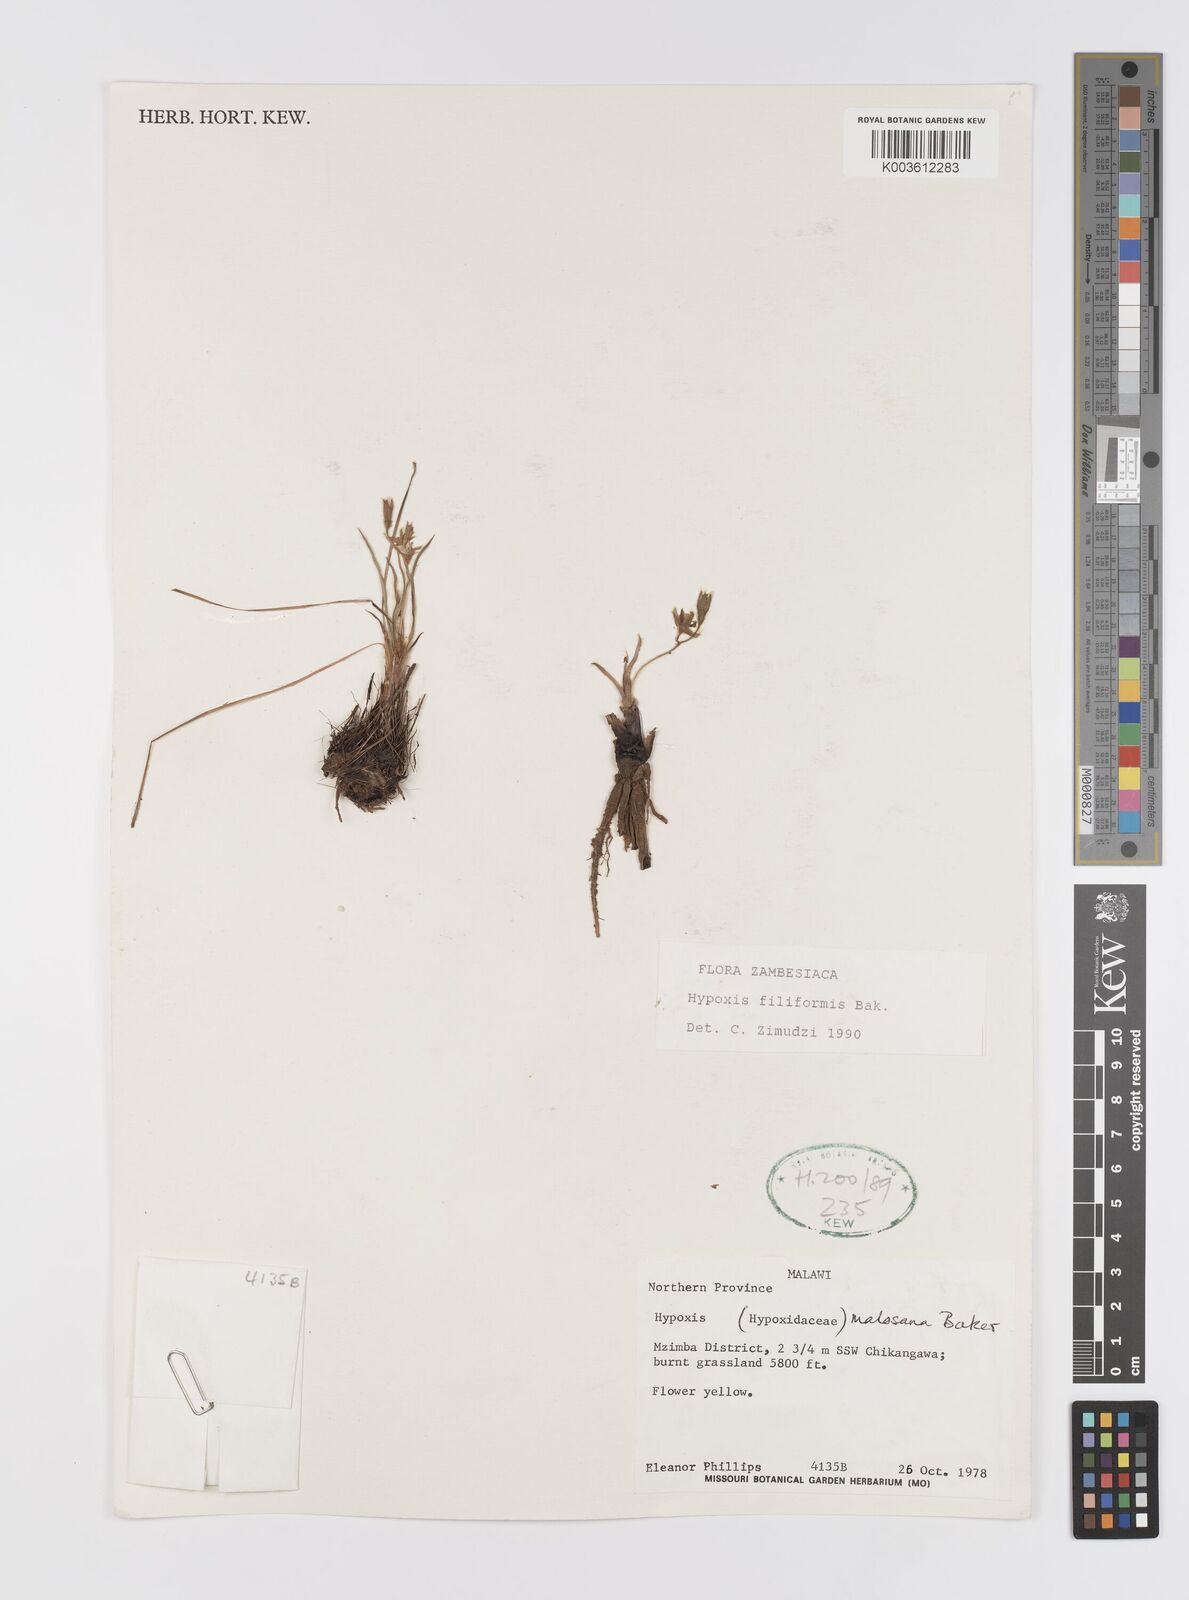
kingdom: Plantae
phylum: Tracheophyta
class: Liliopsida
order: Asparagales
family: Hypoxidaceae
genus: Hypoxis
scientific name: Hypoxis filiformis
